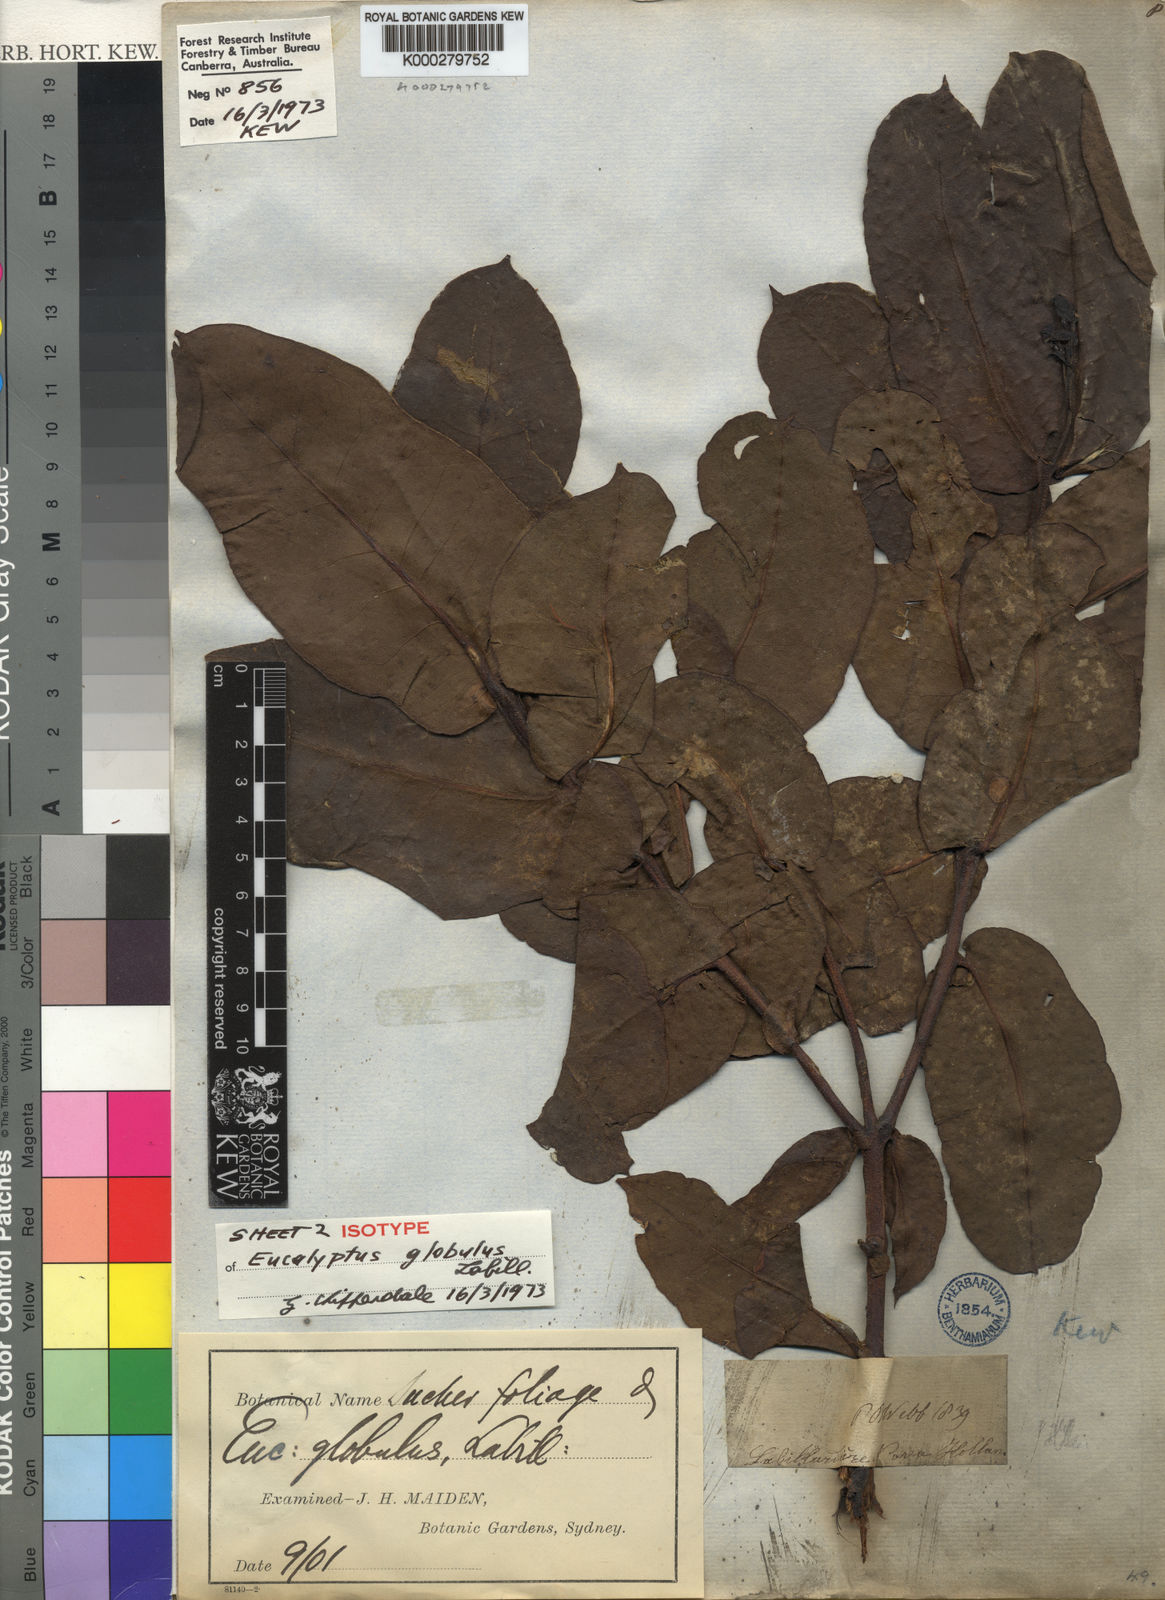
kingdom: Plantae
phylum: Tracheophyta
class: Magnoliopsida
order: Myrtales
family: Myrtaceae
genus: Eucalyptus
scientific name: Eucalyptus globulus
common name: Southern blue-gum
